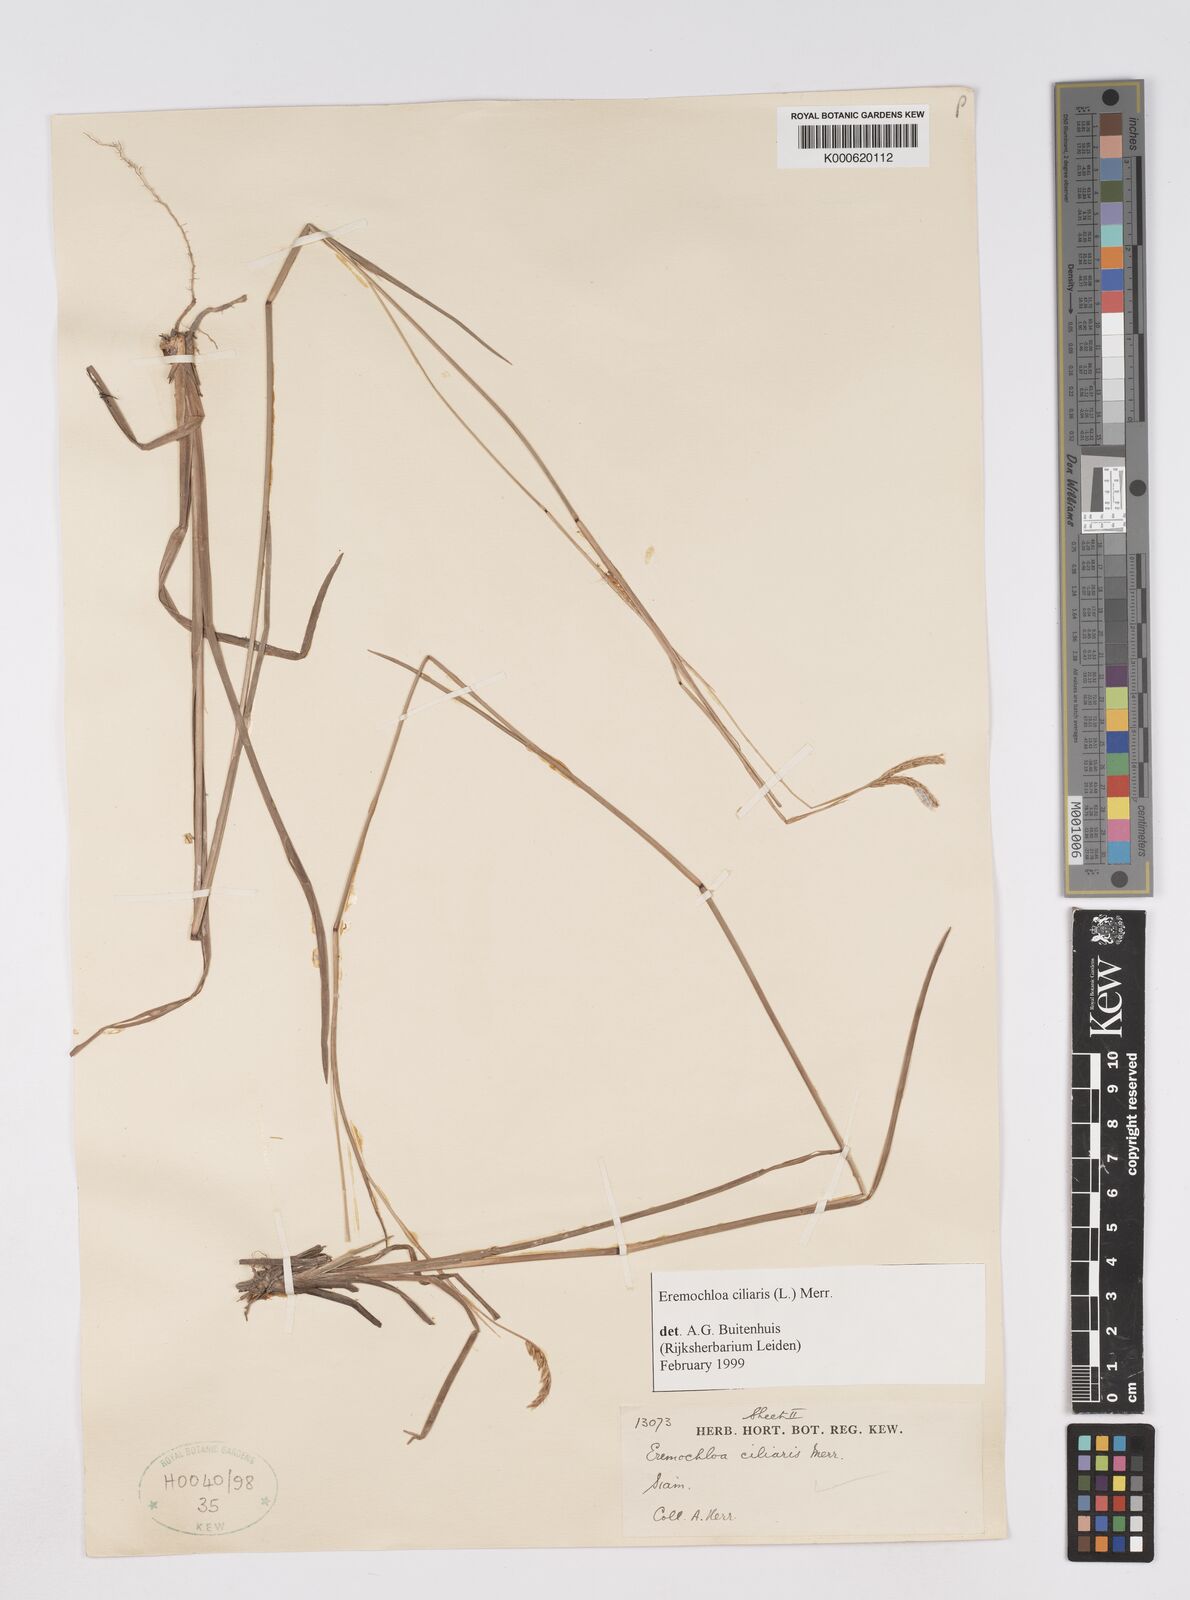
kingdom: Plantae
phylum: Tracheophyta
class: Liliopsida
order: Poales
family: Poaceae
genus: Eremochloa
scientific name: Eremochloa ciliaris
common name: Fringed centipede grass
